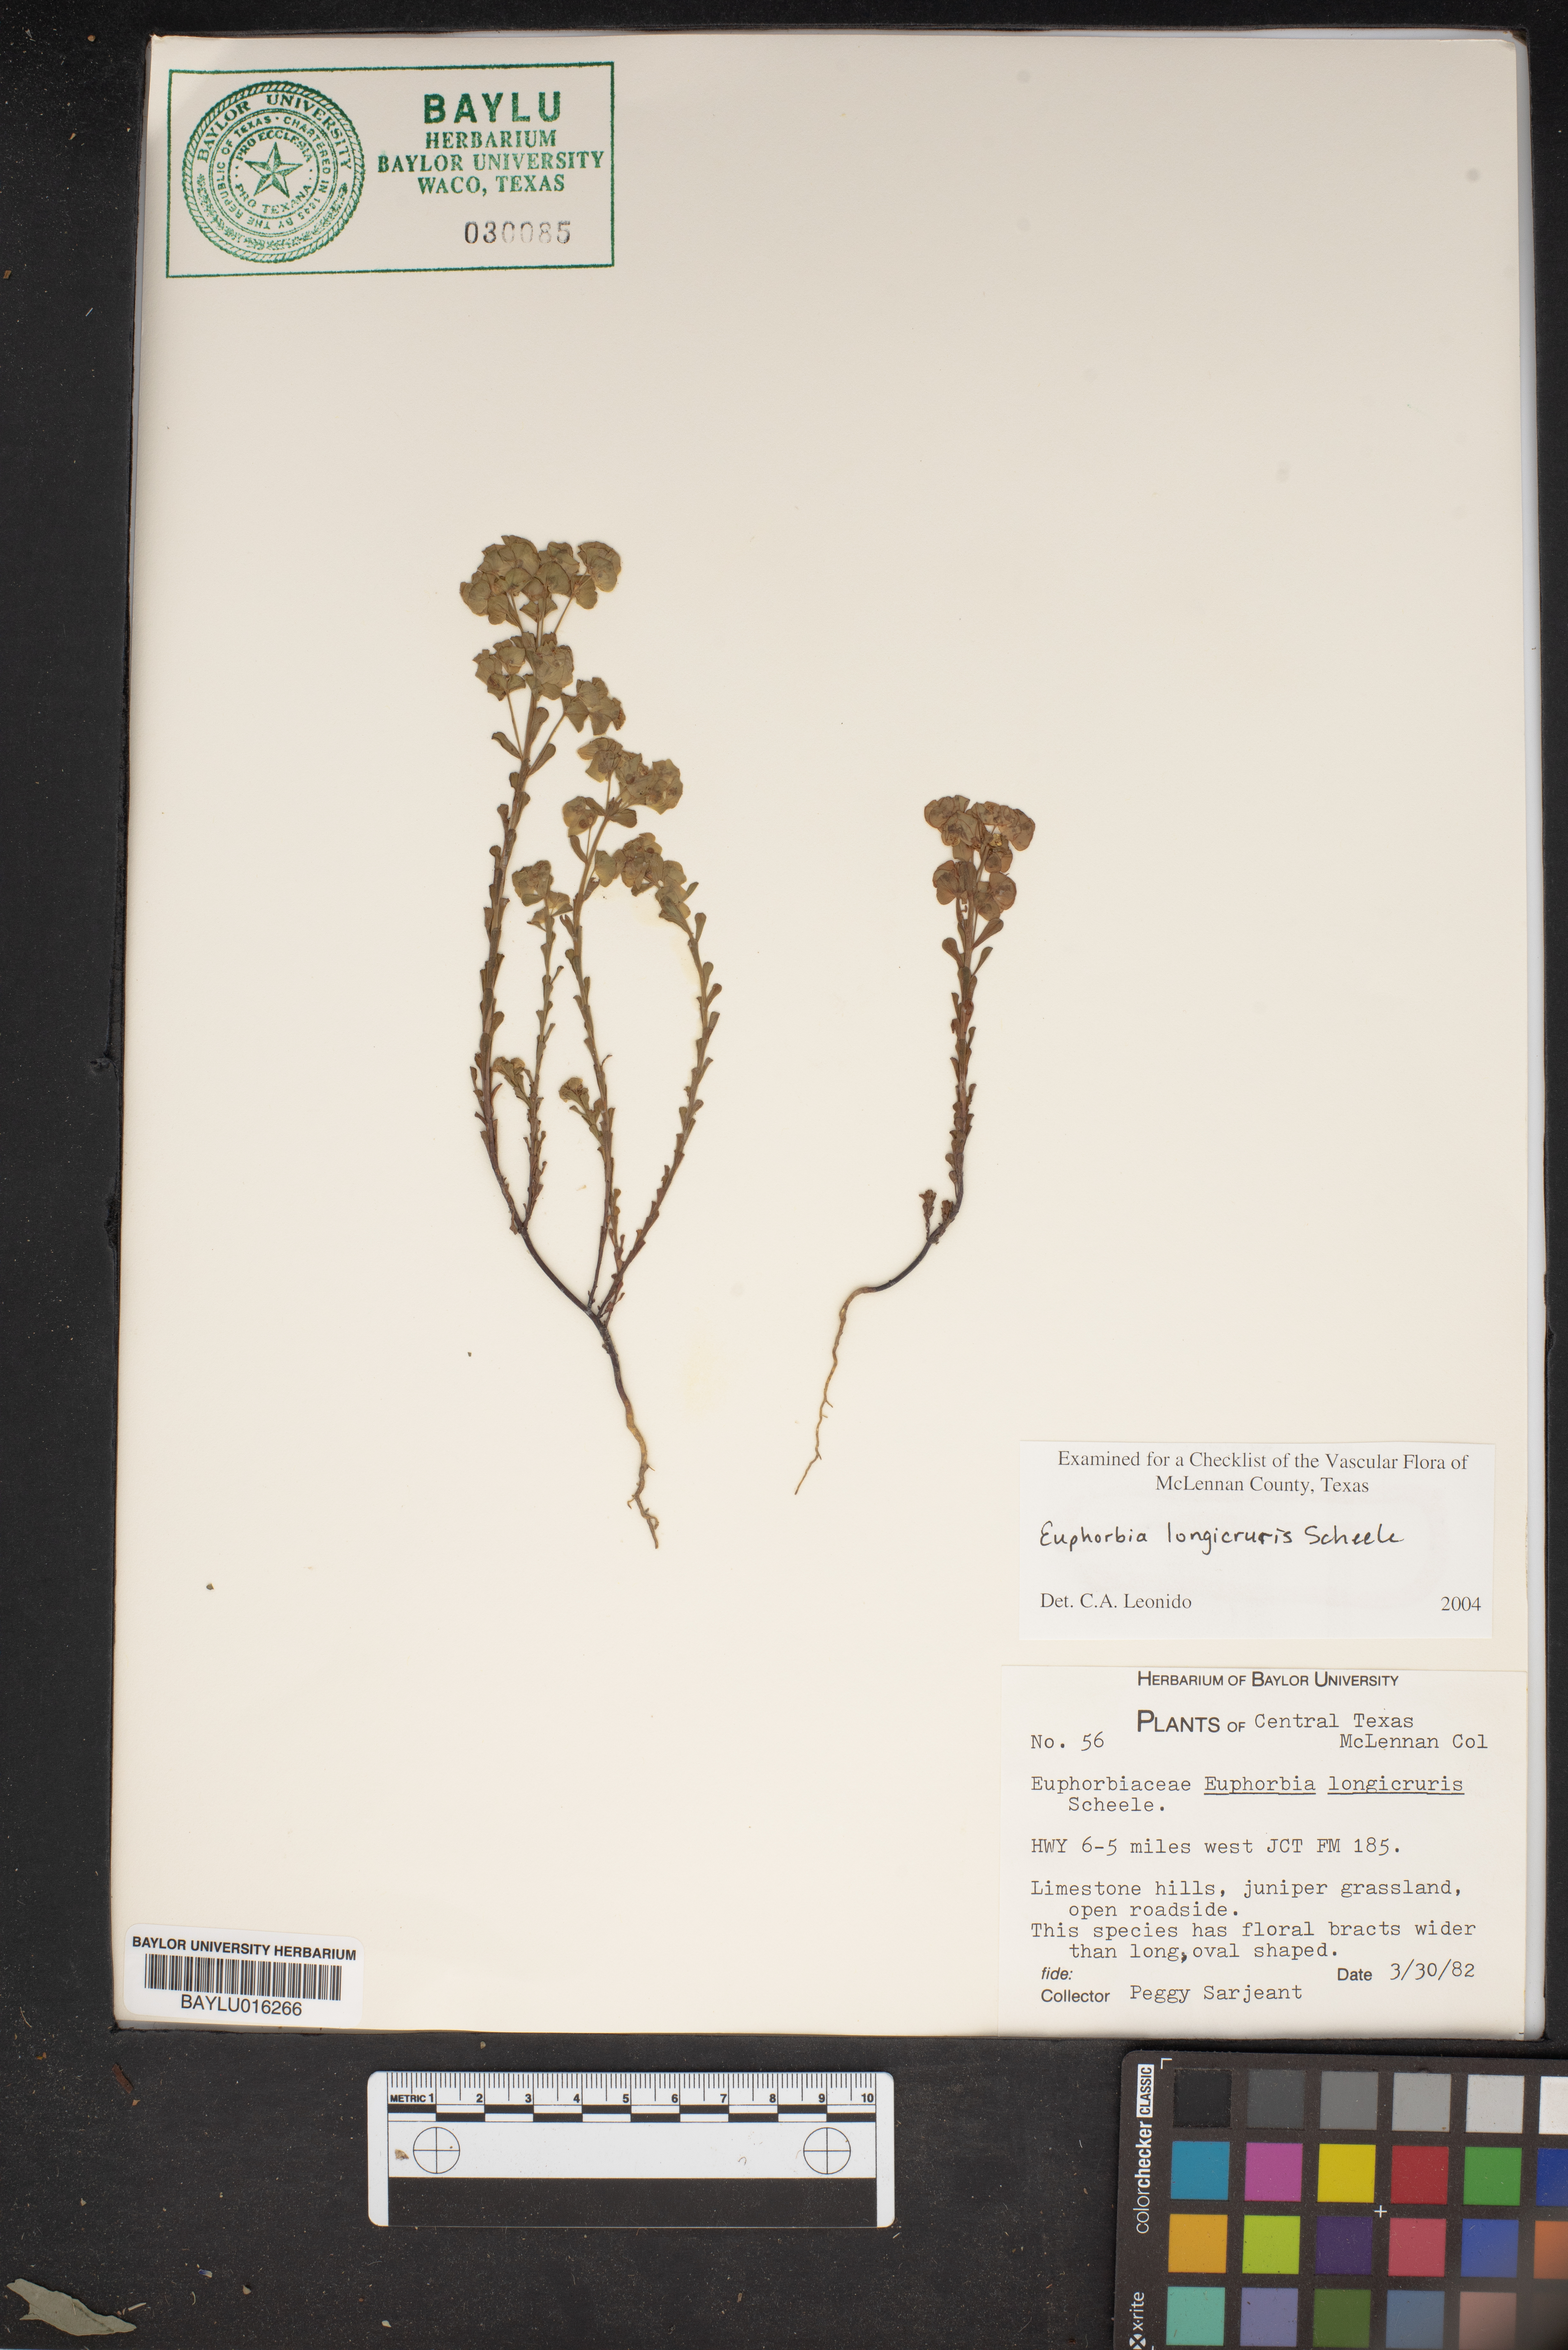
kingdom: Plantae
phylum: Tracheophyta
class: Magnoliopsida
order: Malpighiales
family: Euphorbiaceae
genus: Euphorbia
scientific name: Euphorbia longicruris
